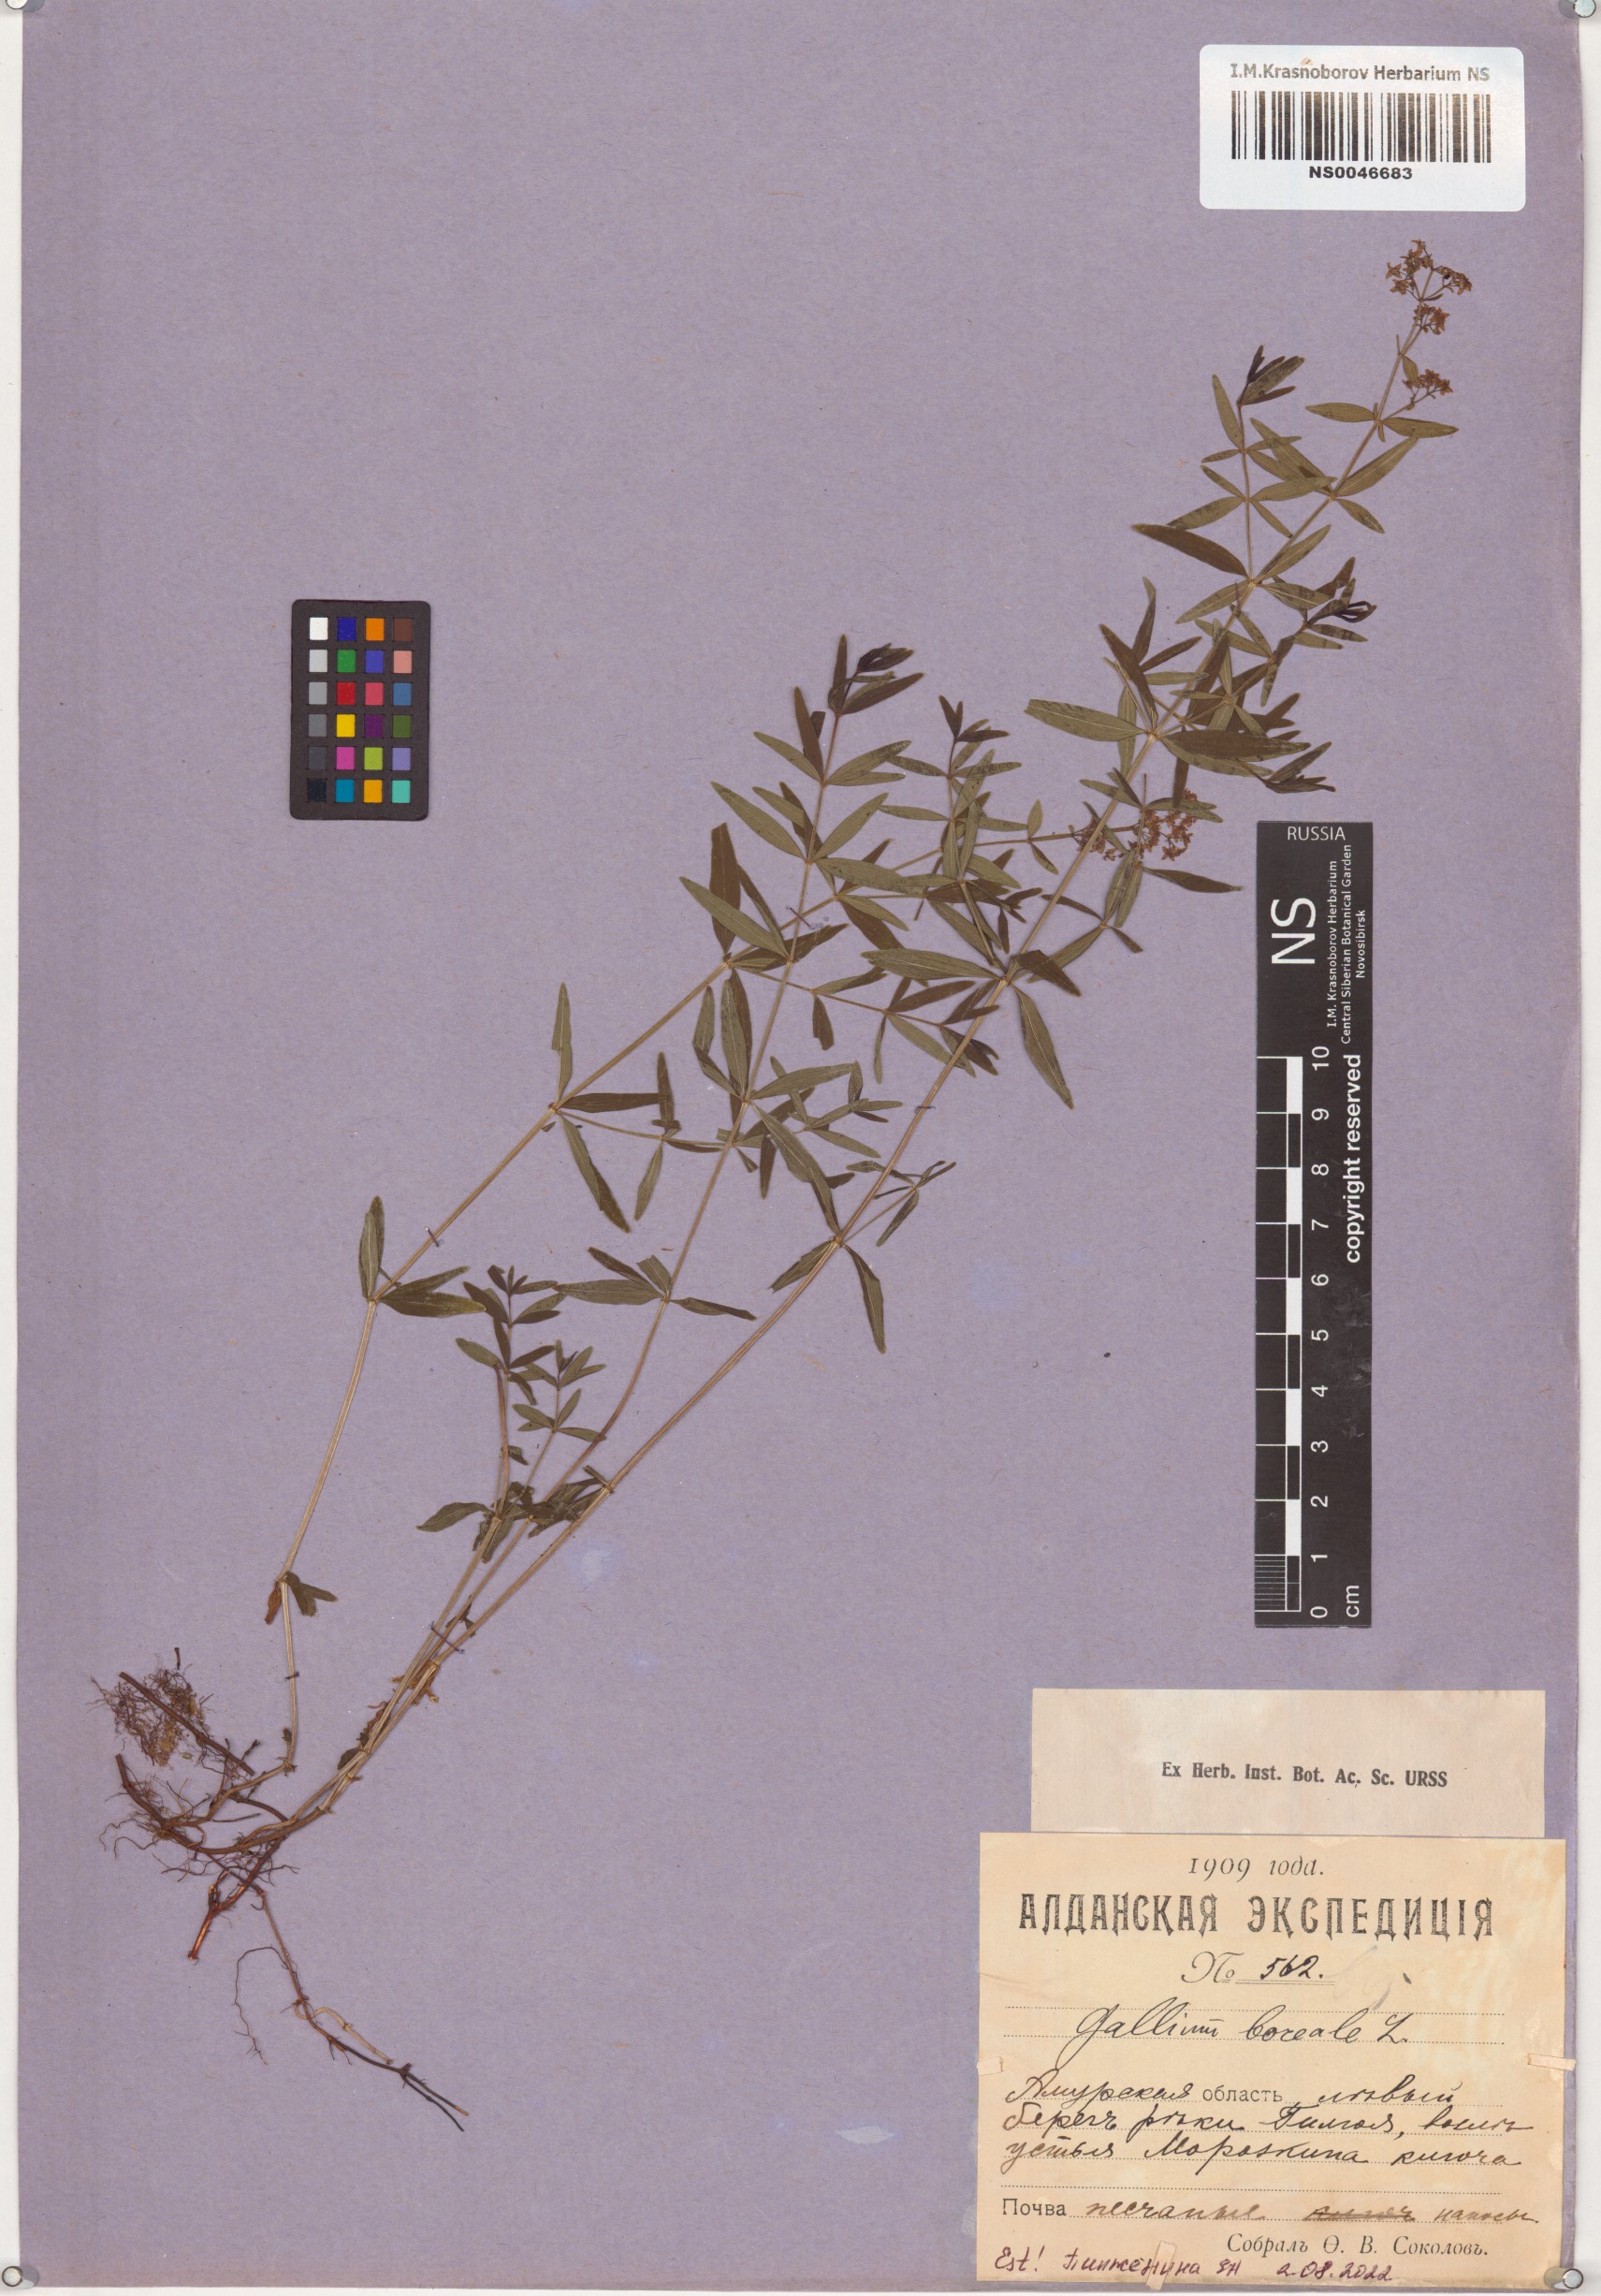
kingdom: Plantae
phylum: Tracheophyta
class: Magnoliopsida
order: Gentianales
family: Rubiaceae
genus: Galium
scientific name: Galium boreale
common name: Northern bedstraw
